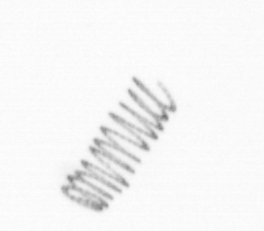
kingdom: Chromista
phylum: Ochrophyta
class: Bacillariophyceae
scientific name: Bacillariophyceae
